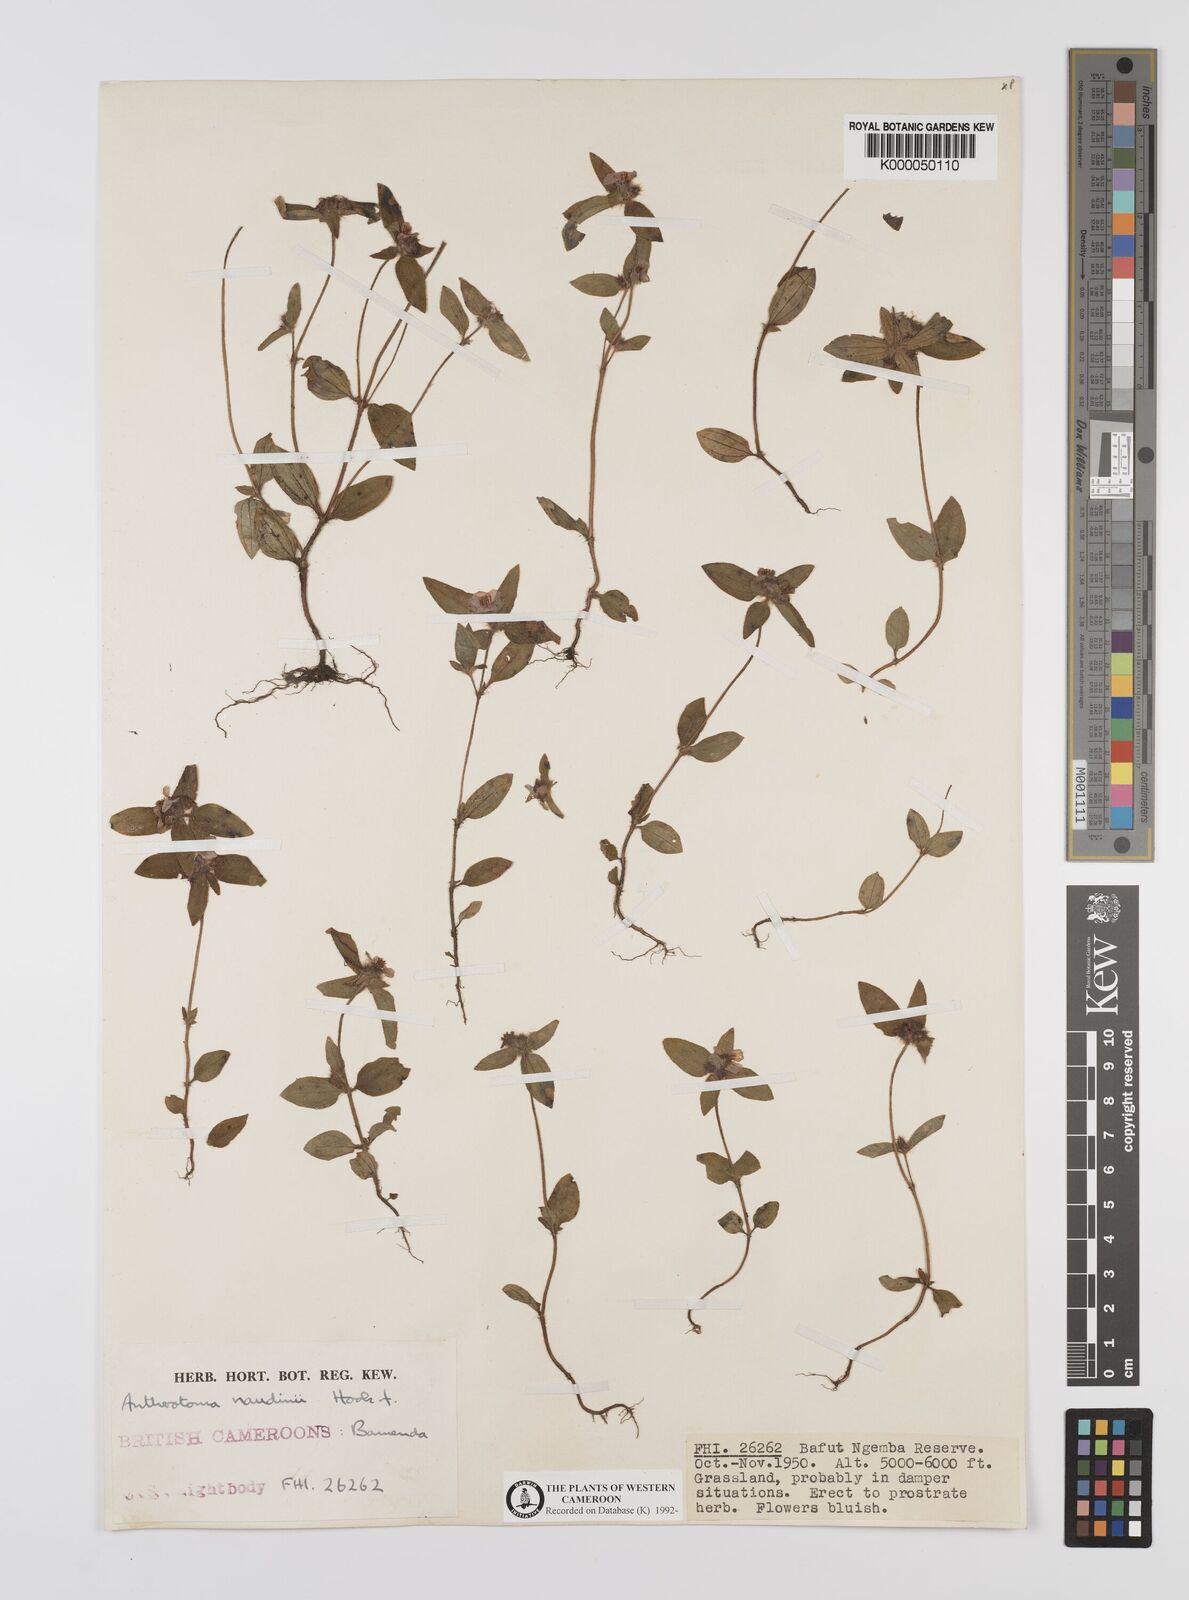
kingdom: Plantae
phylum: Tracheophyta
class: Magnoliopsida
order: Myrtales
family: Melastomataceae
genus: Antherotoma
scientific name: Antherotoma naudinii
